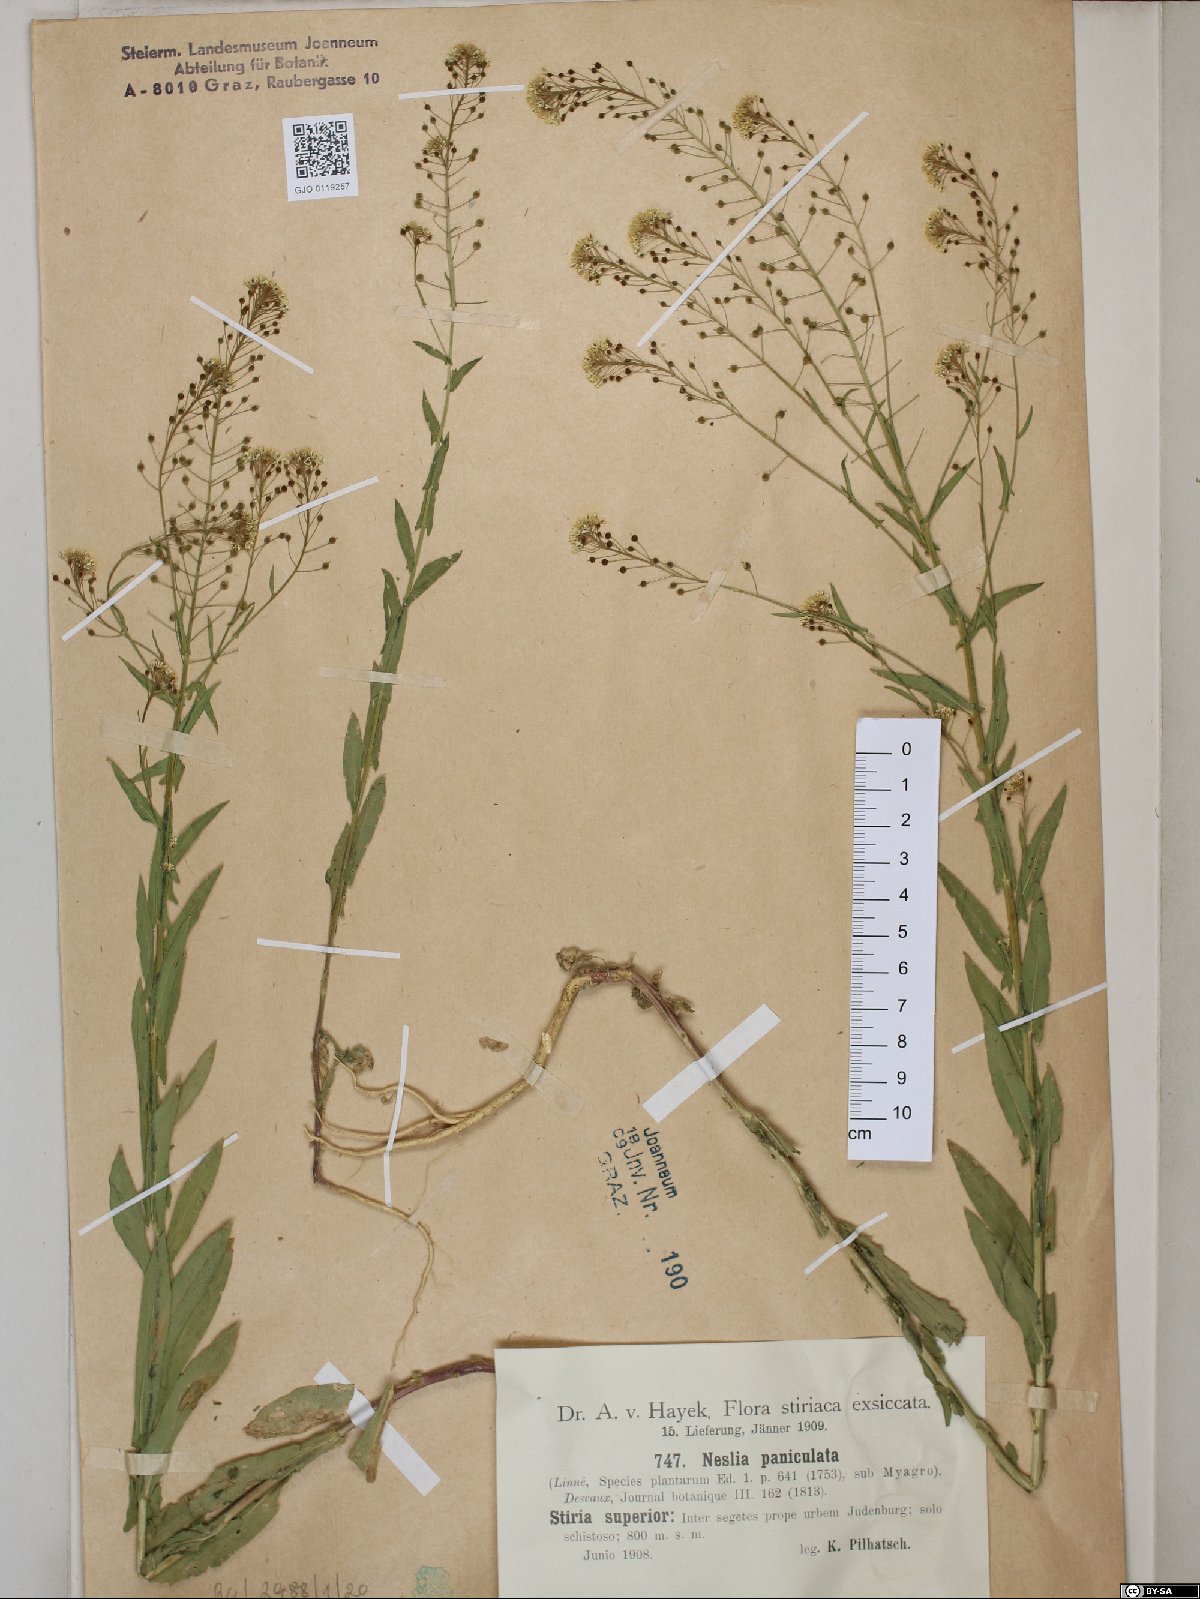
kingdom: Plantae
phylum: Tracheophyta
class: Magnoliopsida
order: Brassicales
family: Brassicaceae
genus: Neslia
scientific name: Neslia paniculata
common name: Ball mustard
